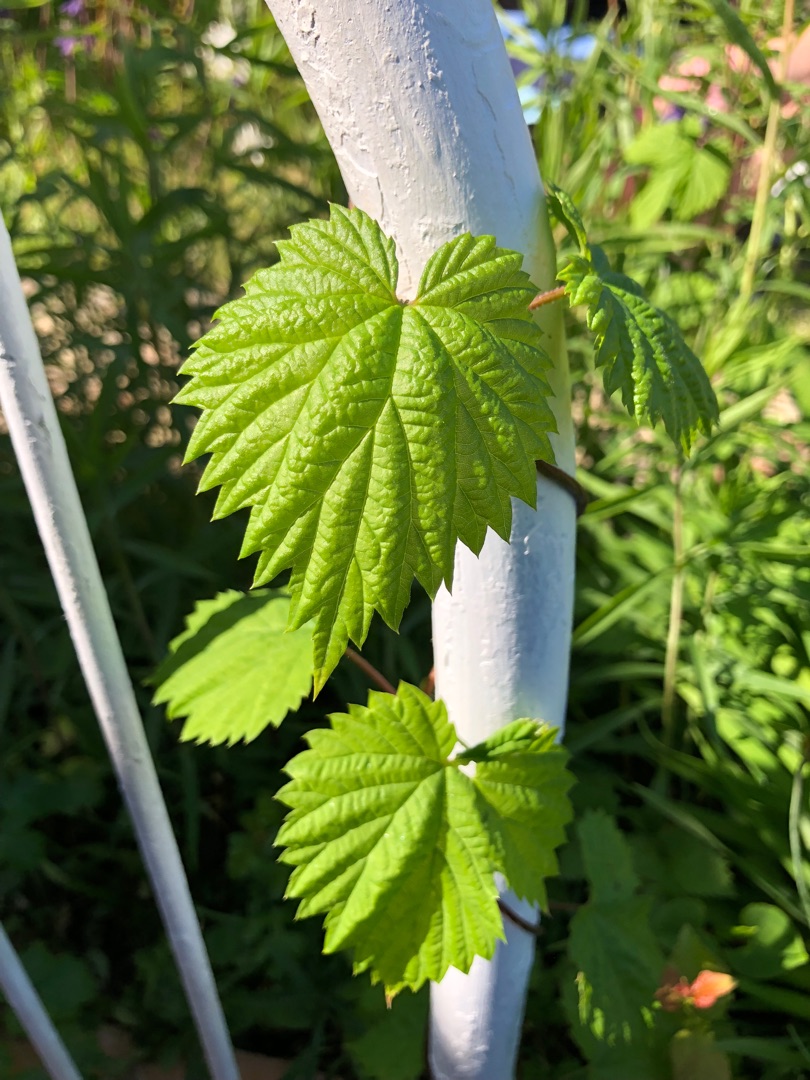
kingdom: Plantae
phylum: Tracheophyta
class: Magnoliopsida
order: Rosales
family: Cannabaceae
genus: Humulus
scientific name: Humulus lupulus
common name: Humle
